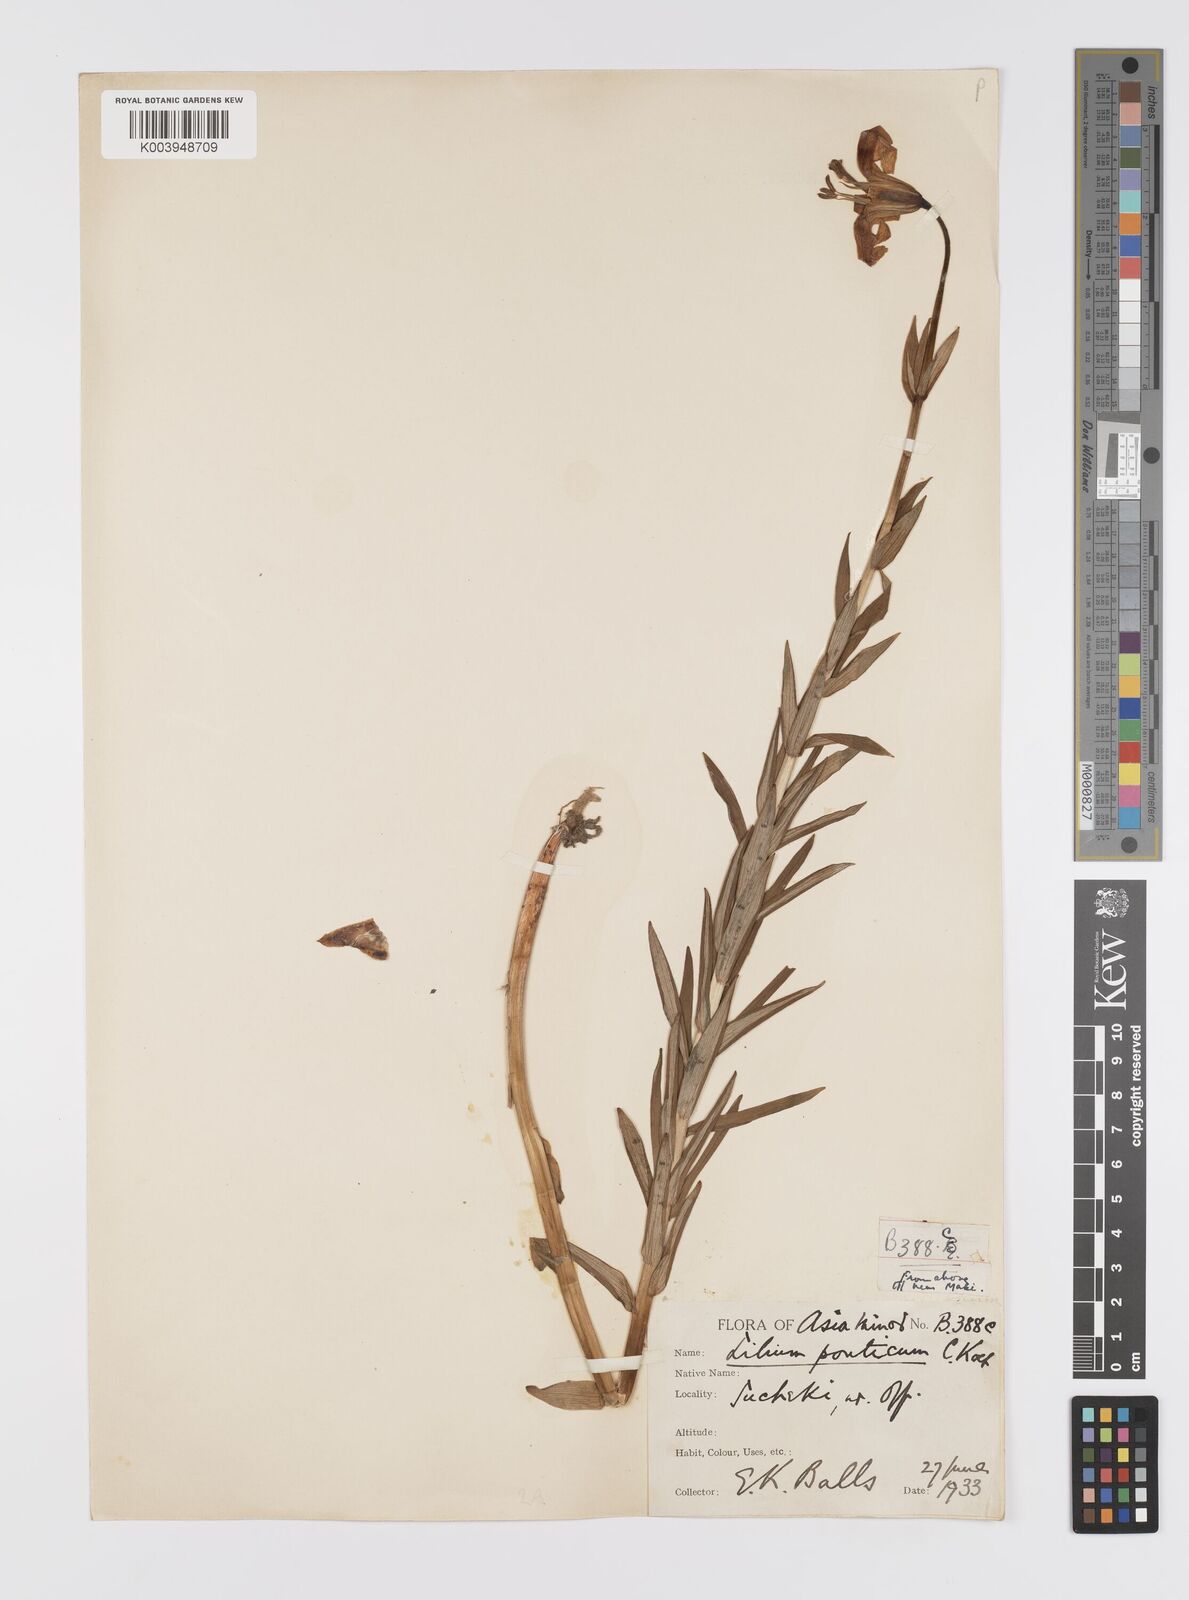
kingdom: Plantae
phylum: Tracheophyta
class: Liliopsida
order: Liliales
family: Liliaceae
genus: Lilium
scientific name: Lilium ponticum
